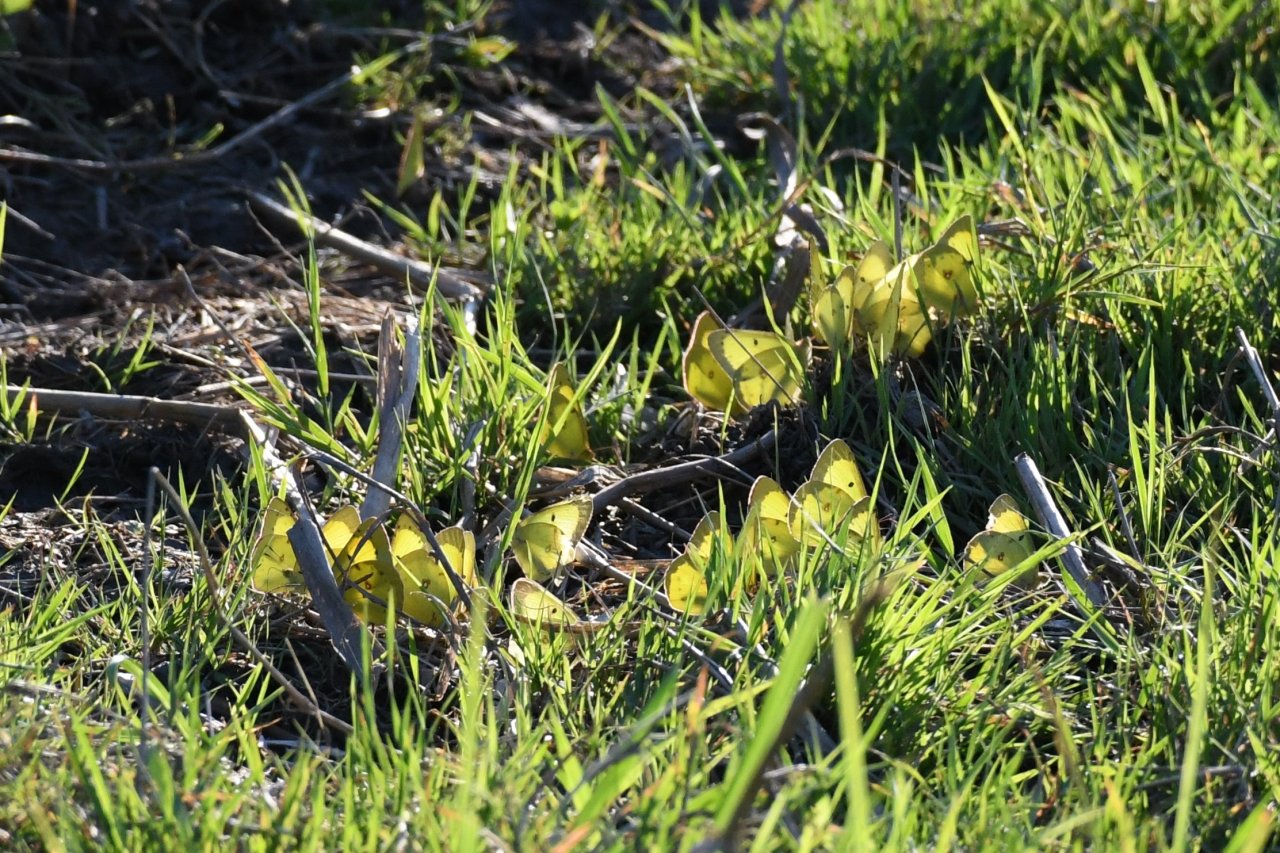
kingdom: Animalia
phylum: Arthropoda
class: Insecta
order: Lepidoptera
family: Pieridae
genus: Colias
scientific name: Colias philodice
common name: Clouded Sulphur
